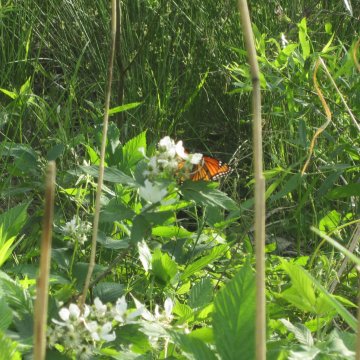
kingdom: Animalia
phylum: Arthropoda
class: Insecta
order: Lepidoptera
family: Nymphalidae
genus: Limenitis
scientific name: Limenitis archippus
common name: Viceroy
